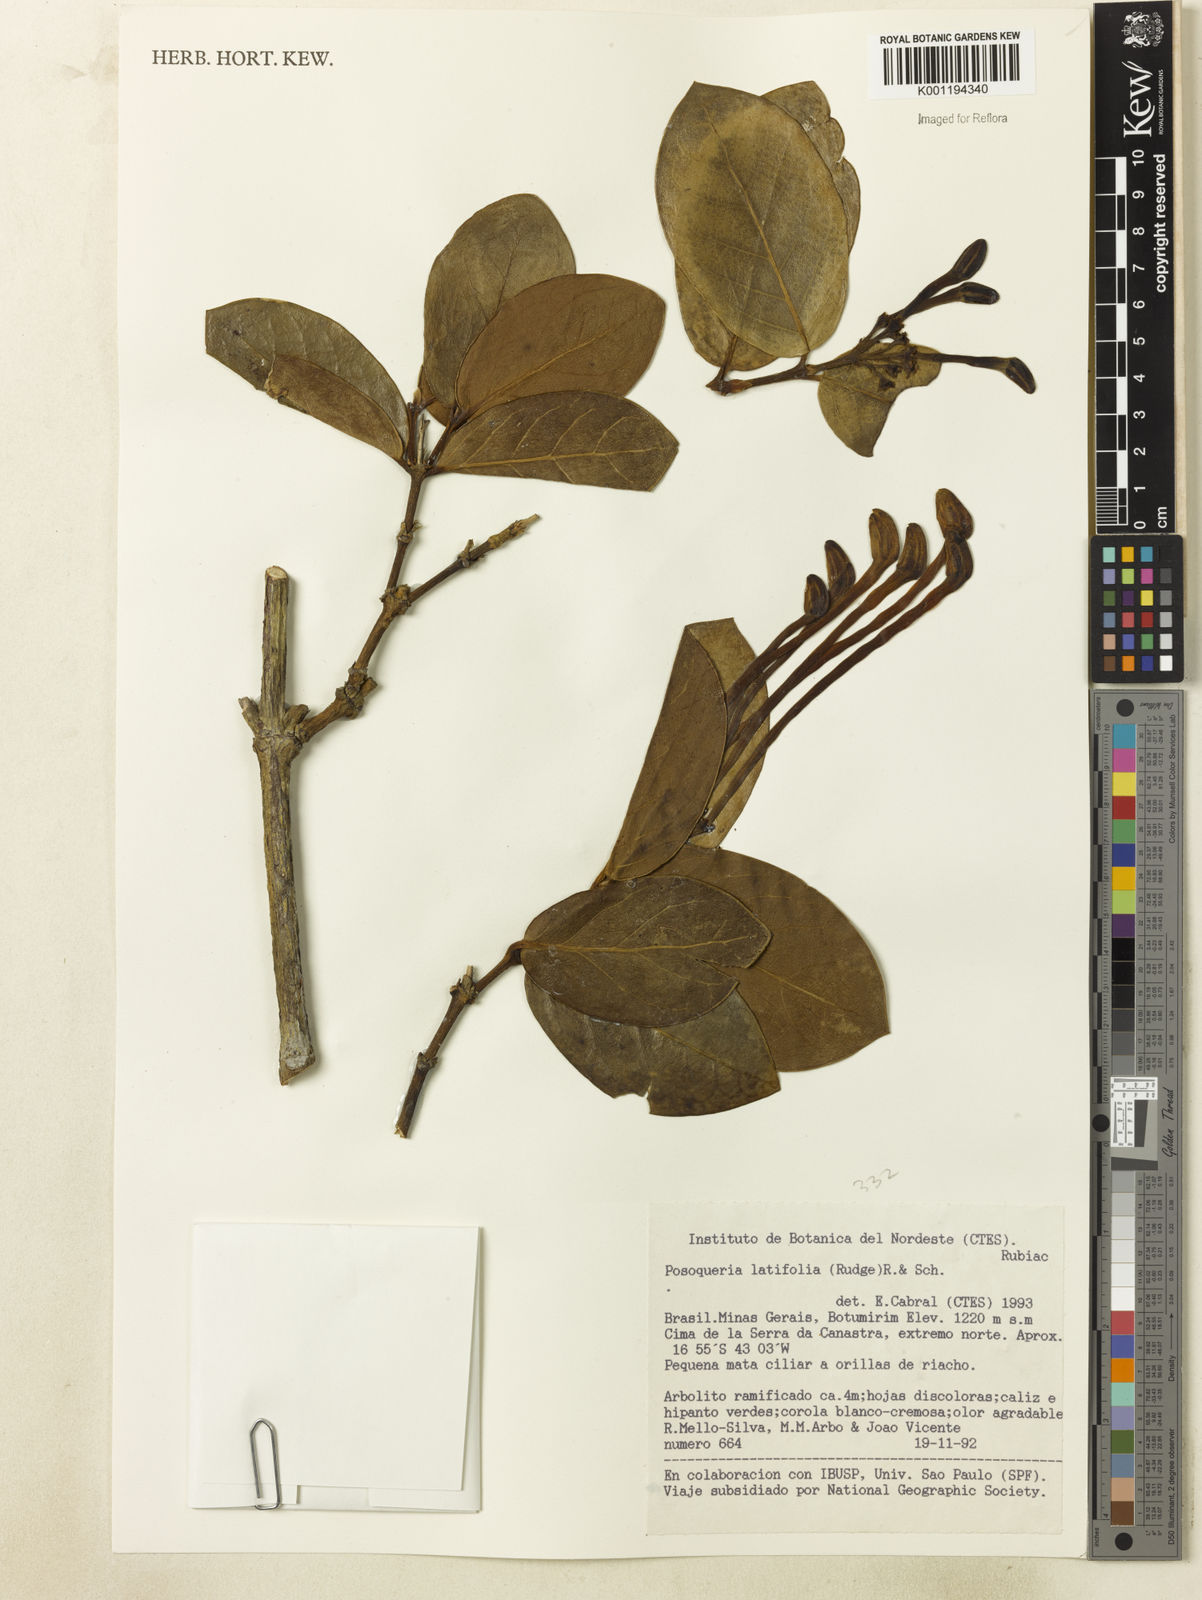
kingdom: Plantae
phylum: Tracheophyta
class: Magnoliopsida
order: Gentianales
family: Rubiaceae
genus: Posoqueria
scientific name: Posoqueria latifolia
